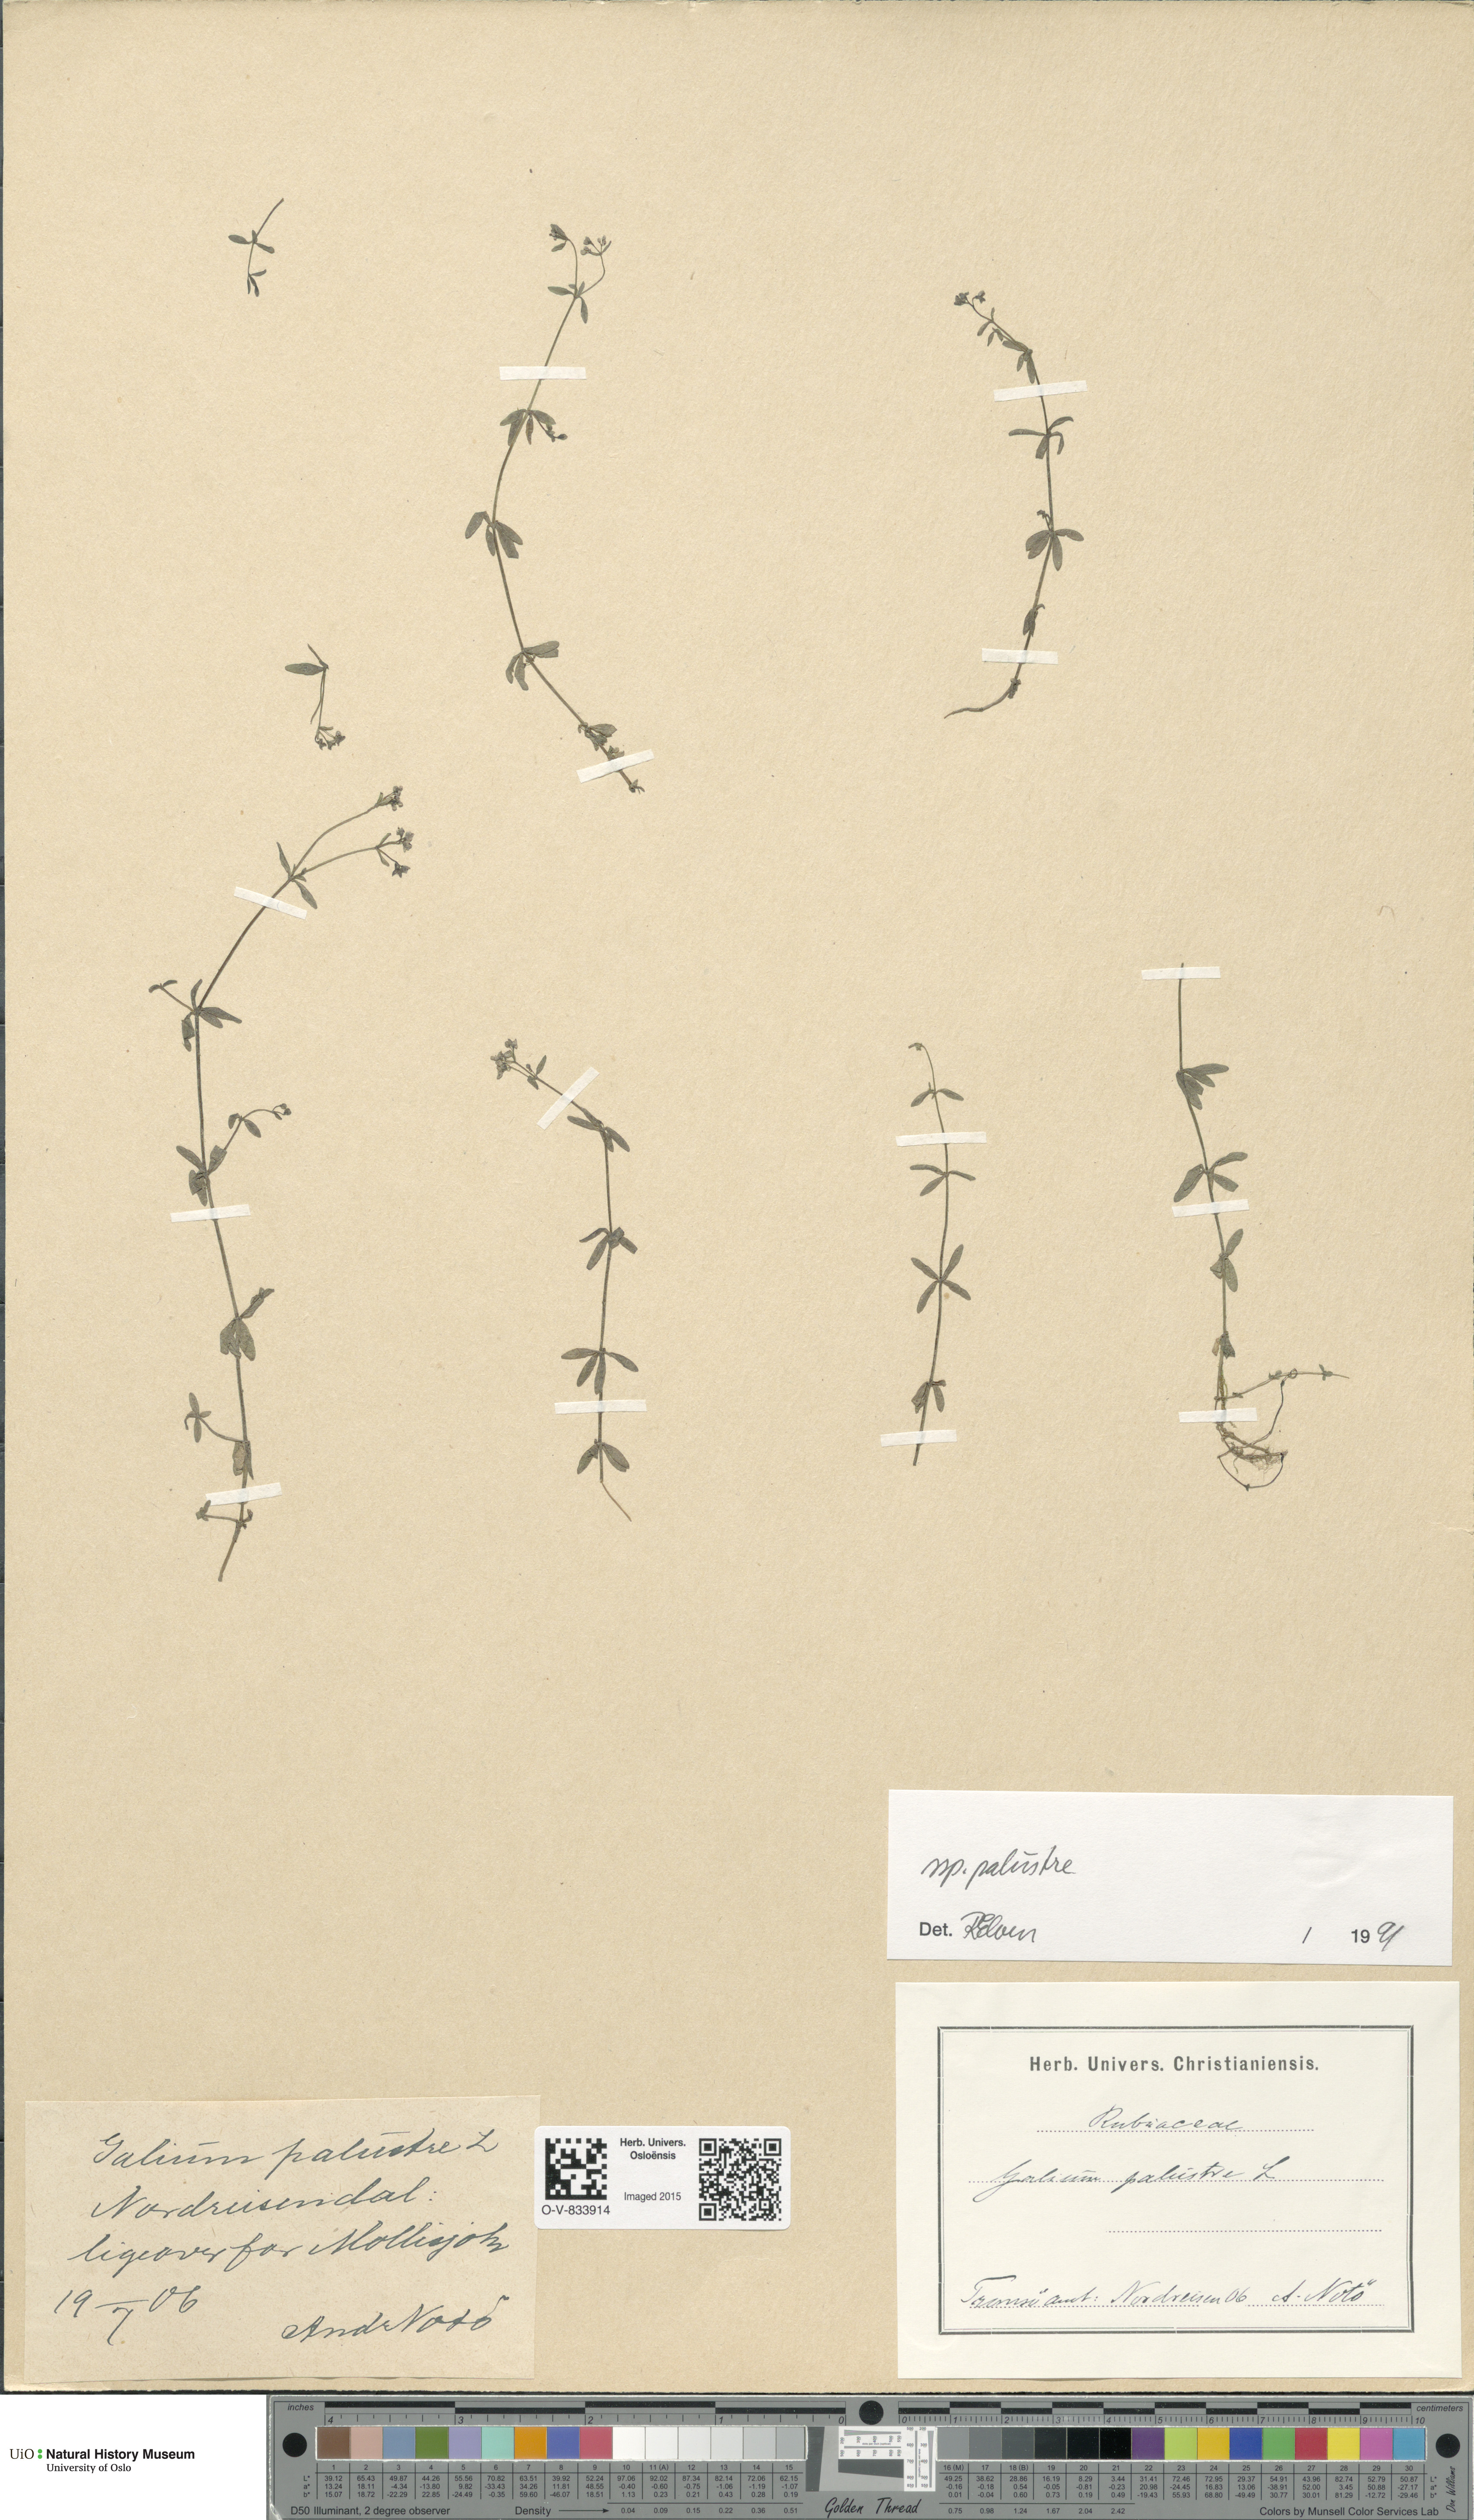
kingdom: Plantae
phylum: Tracheophyta
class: Magnoliopsida
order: Gentianales
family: Rubiaceae
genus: Galium
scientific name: Galium palustre
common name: Common marsh-bedstraw
